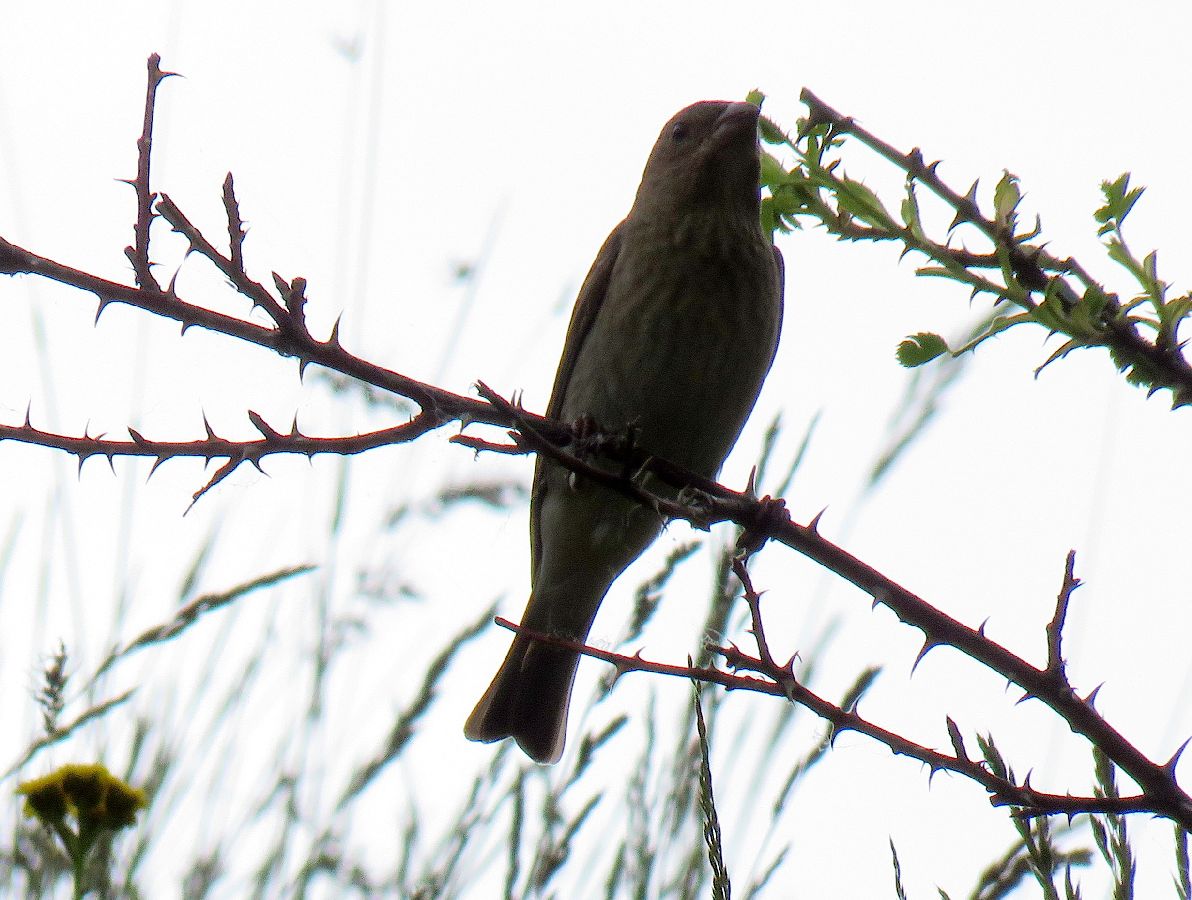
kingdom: Animalia
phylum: Chordata
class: Aves
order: Passeriformes
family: Passeridae
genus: Petronia
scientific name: Petronia petronia
